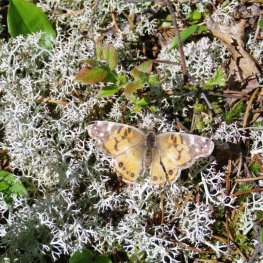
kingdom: Animalia
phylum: Arthropoda
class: Insecta
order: Lepidoptera
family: Nymphalidae
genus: Vanessa
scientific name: Vanessa virginiensis
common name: American Lady
